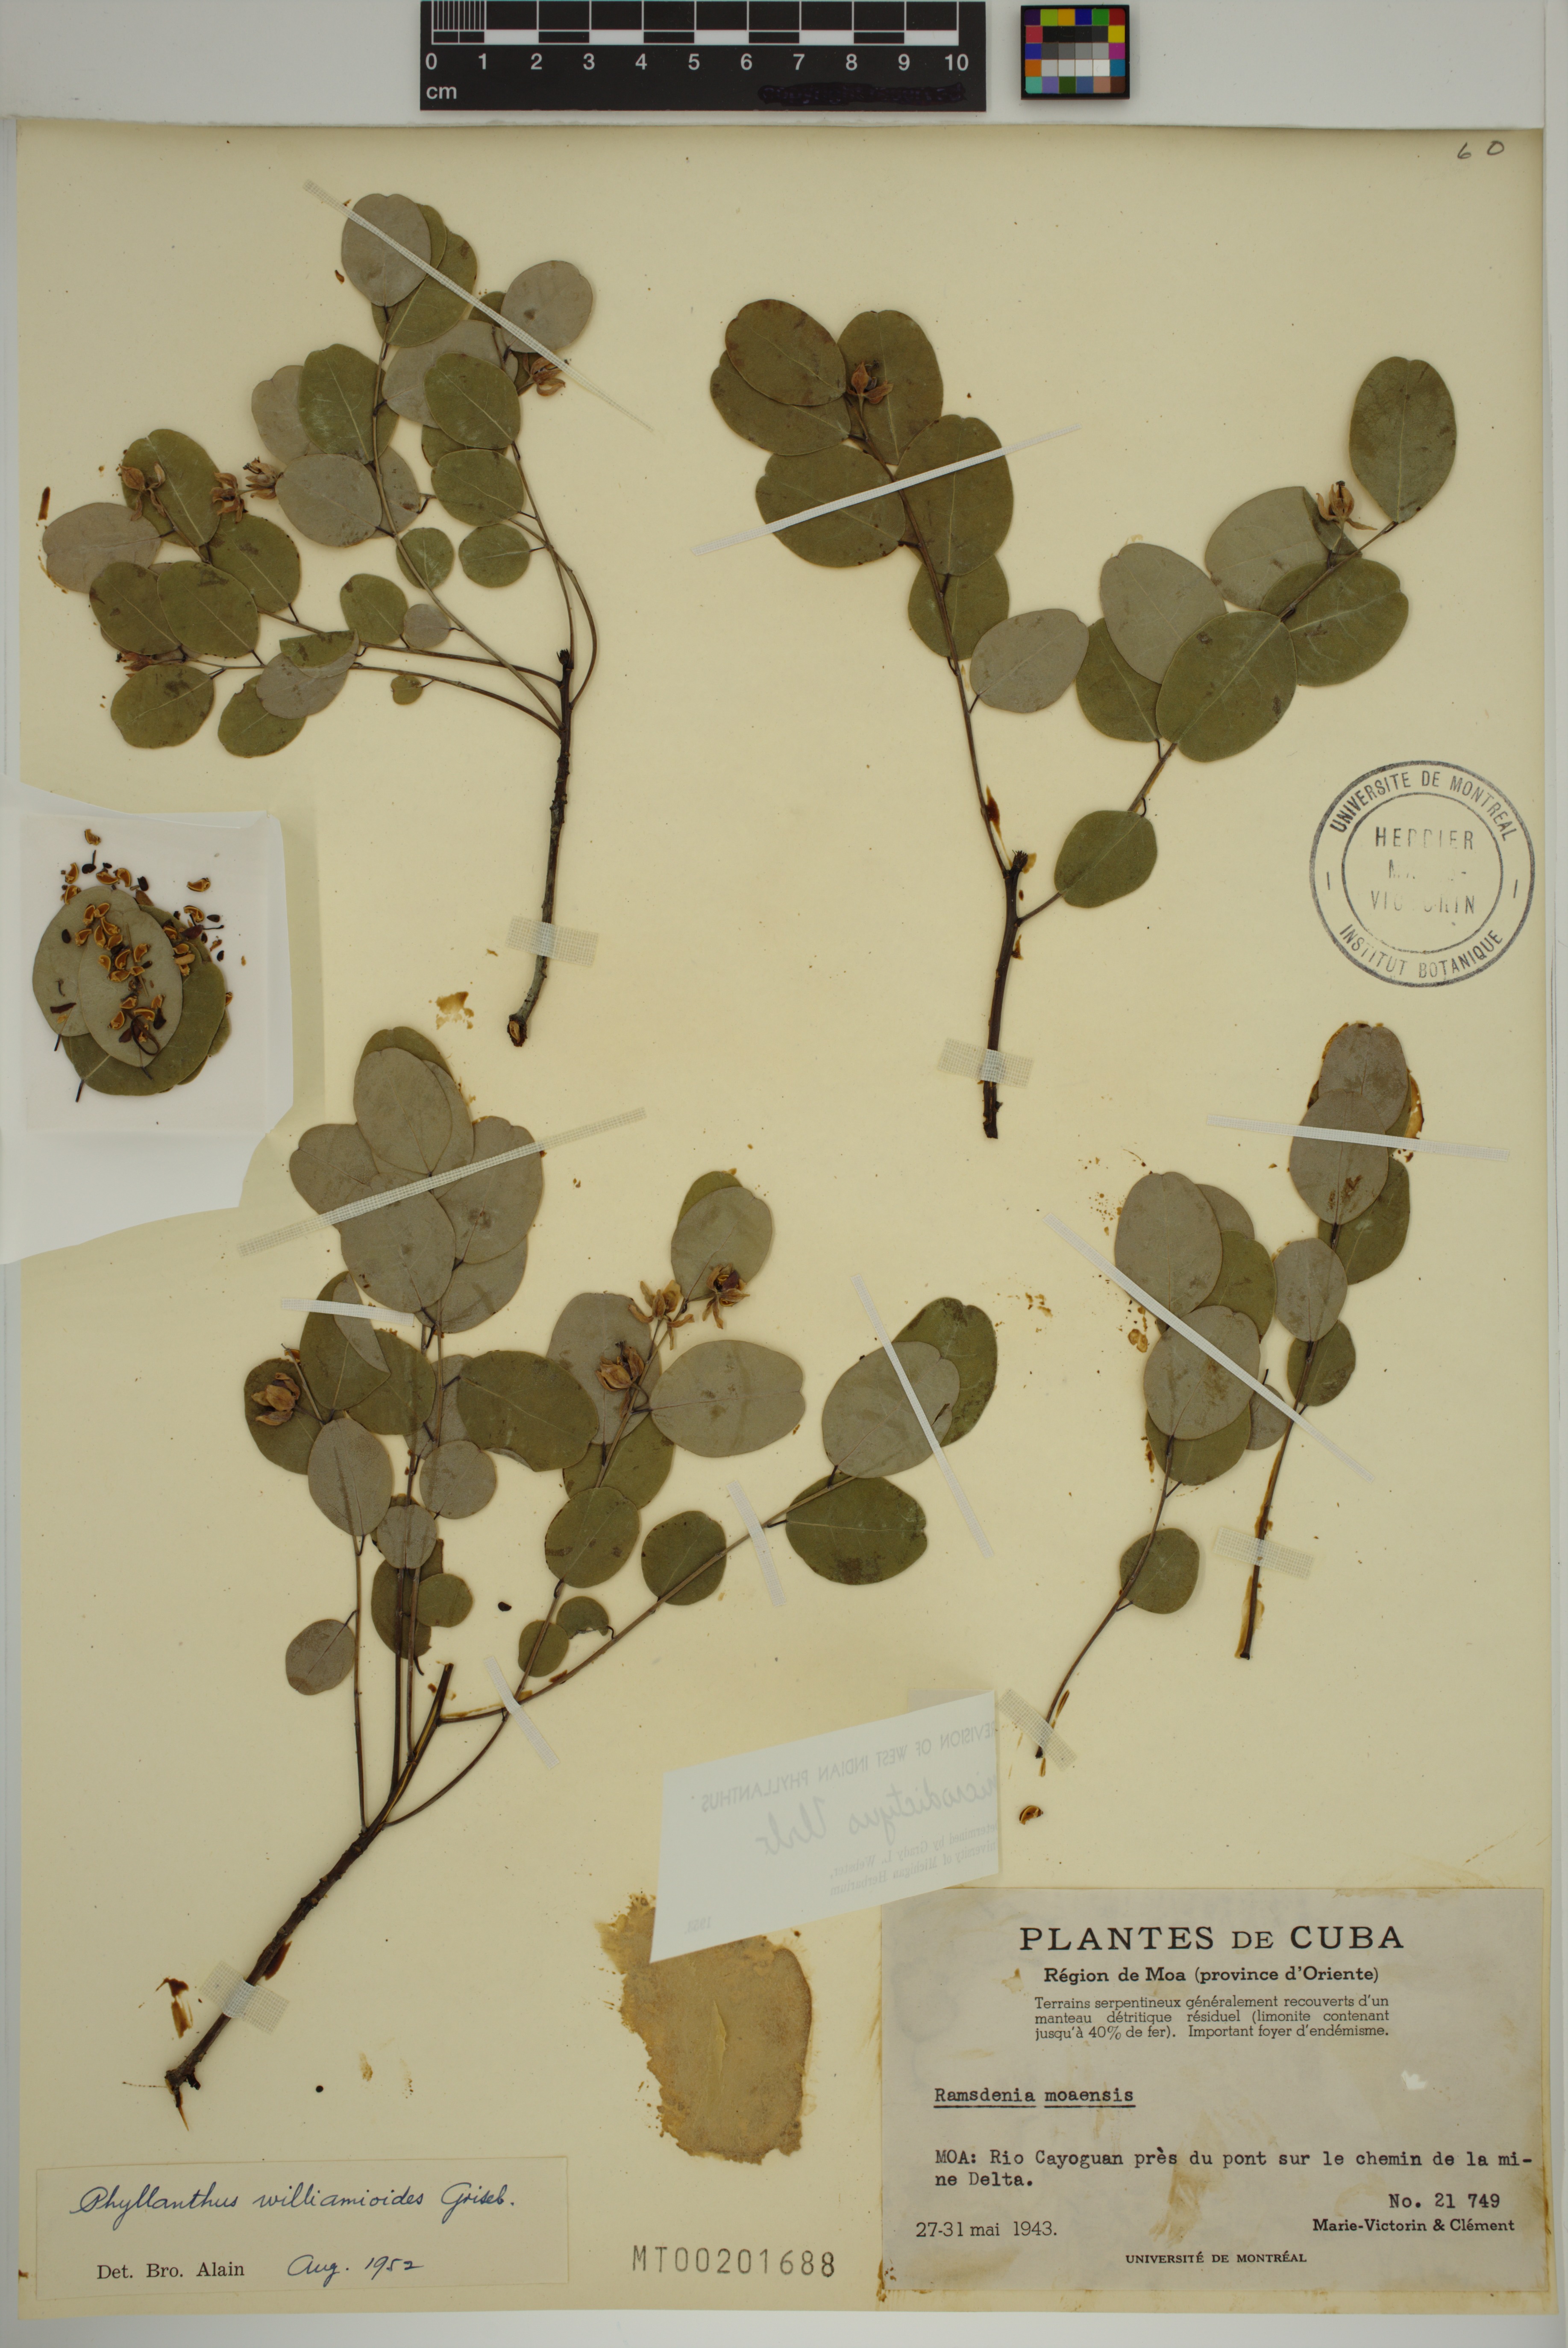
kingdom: Plantae
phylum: Tracheophyta
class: Magnoliopsida
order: Malpighiales
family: Phyllanthaceae
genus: Phyllanthus
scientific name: Phyllanthus microdictyus
